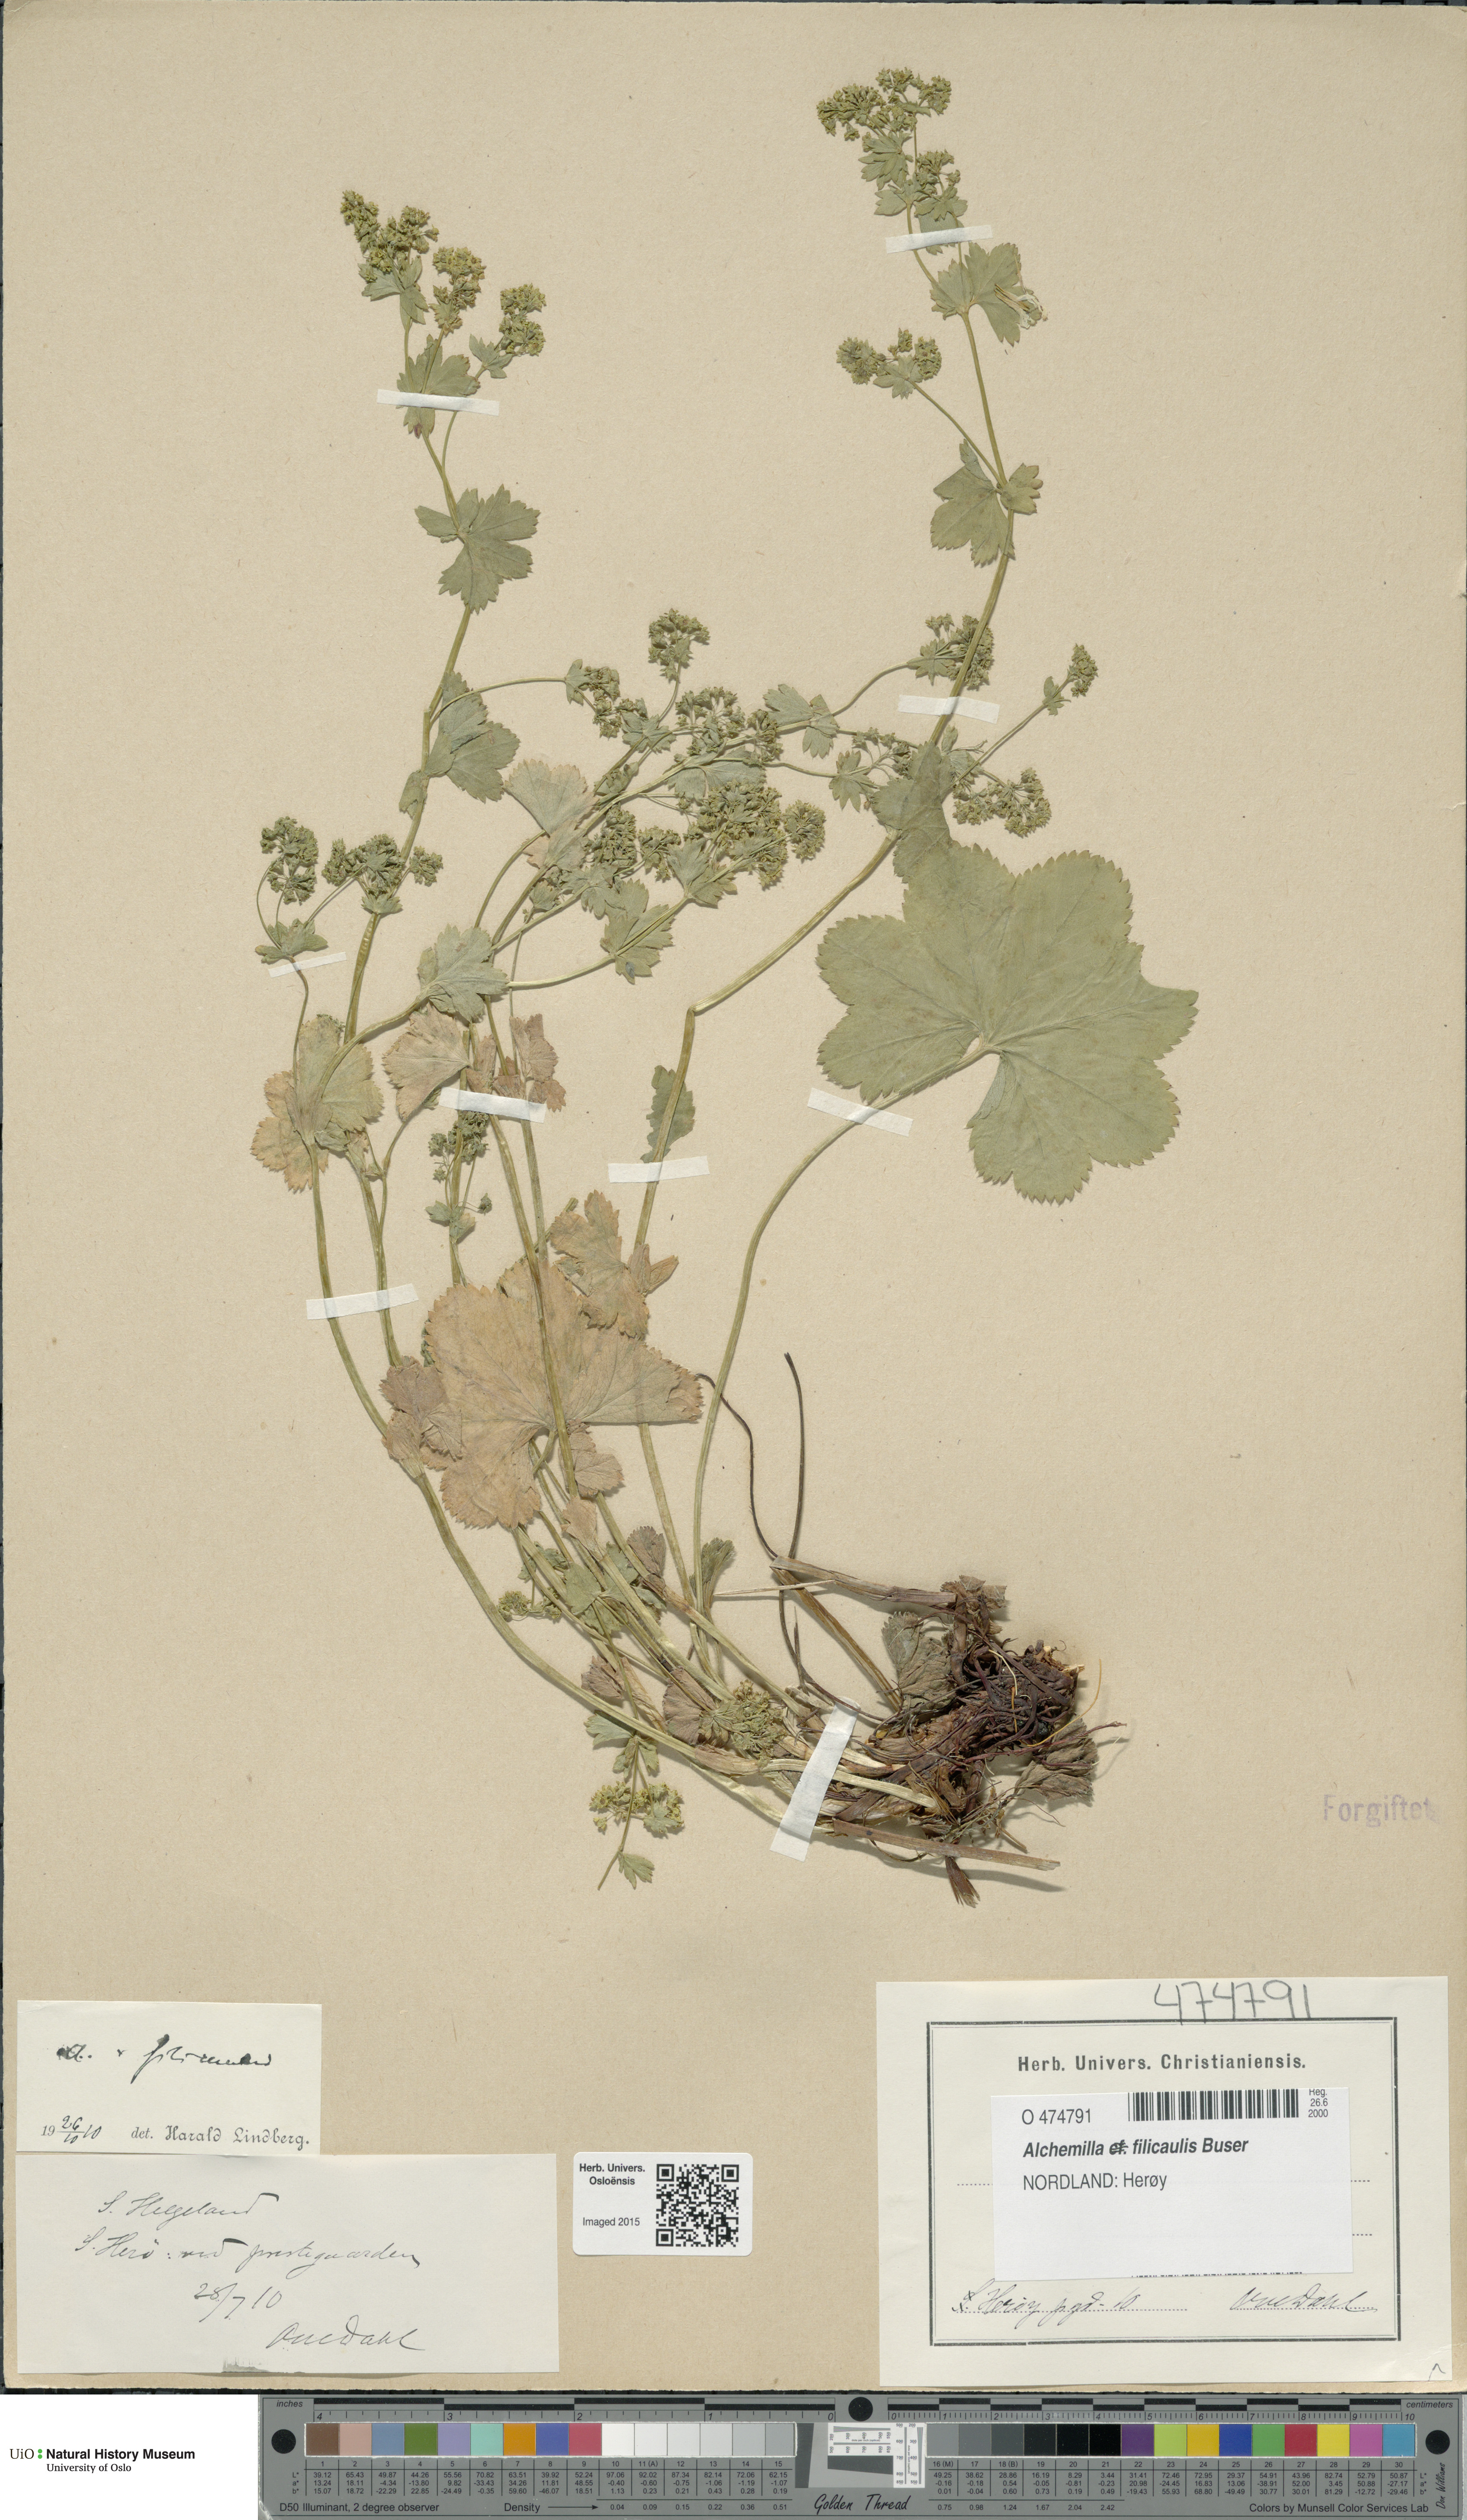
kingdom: Plantae
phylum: Tracheophyta
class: Magnoliopsida
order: Rosales
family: Rosaceae
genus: Alchemilla
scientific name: Alchemilla filicaulis
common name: Hairy lady's-mantle
